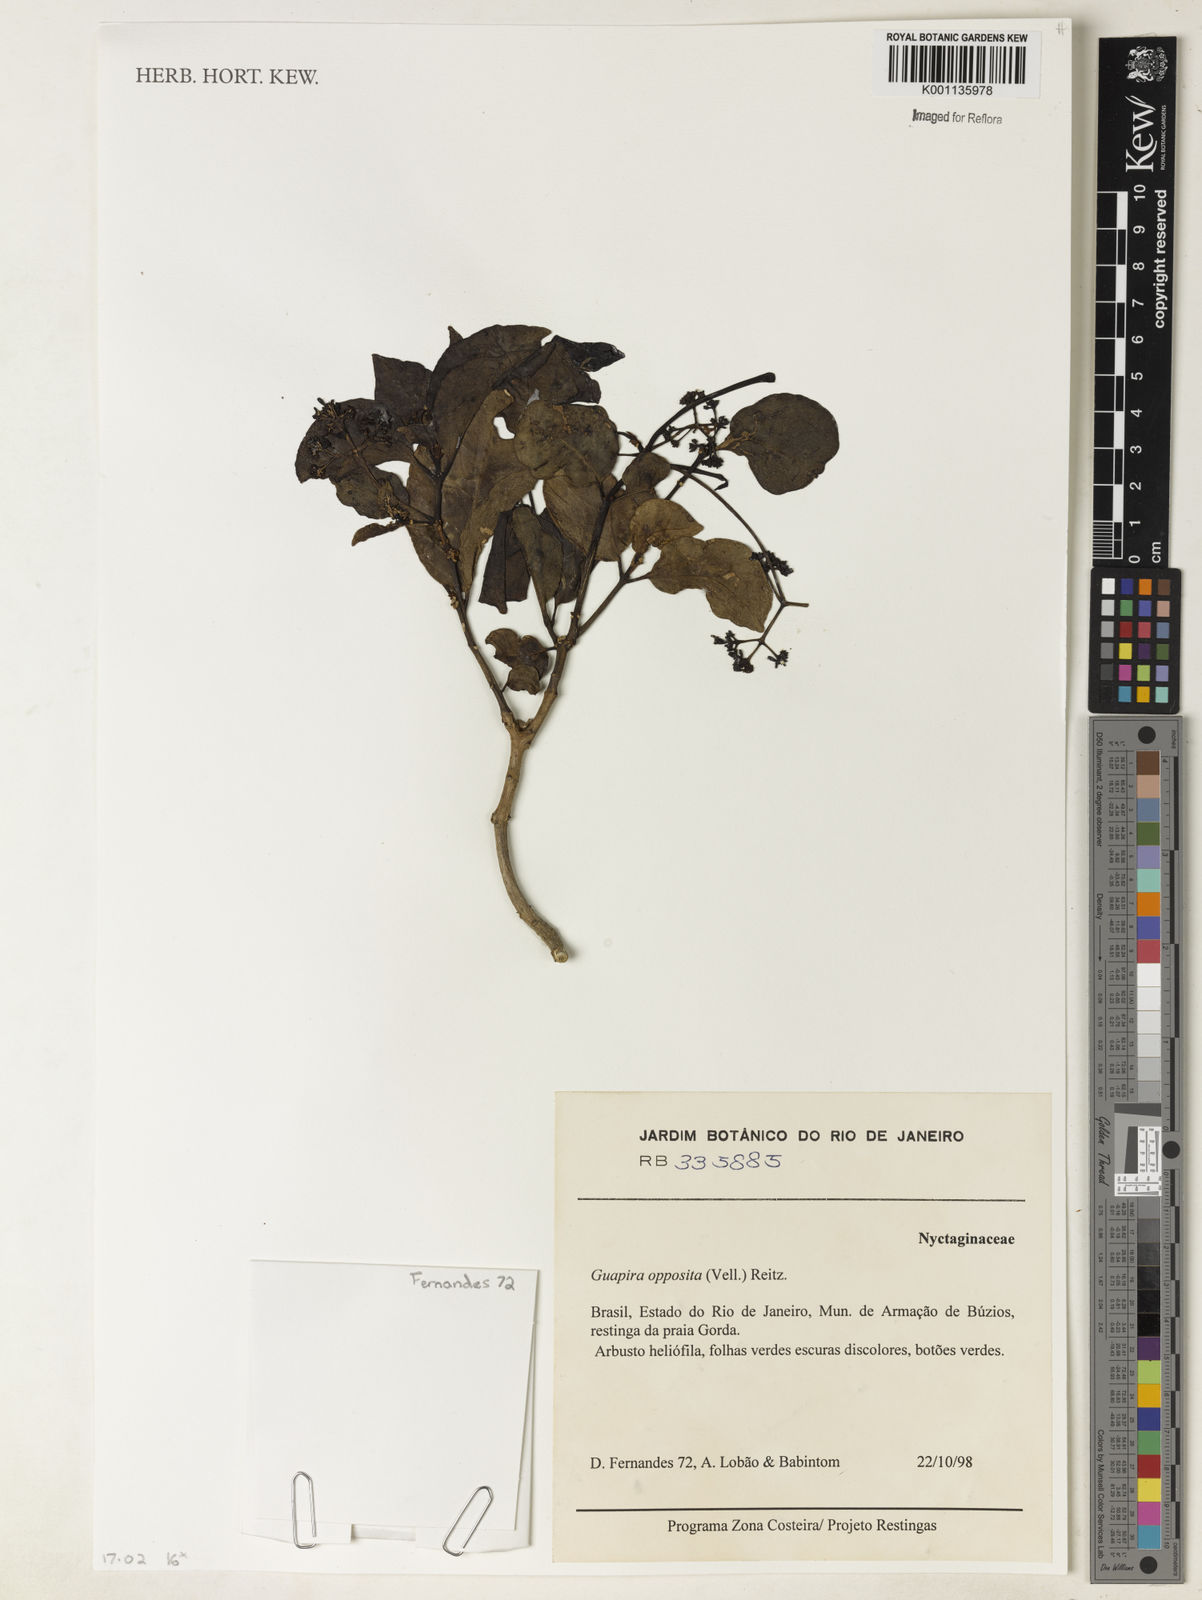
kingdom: Plantae
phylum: Tracheophyta
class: Magnoliopsida
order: Caryophyllales
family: Nyctaginaceae
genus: Guapira
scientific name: Guapira opposita
